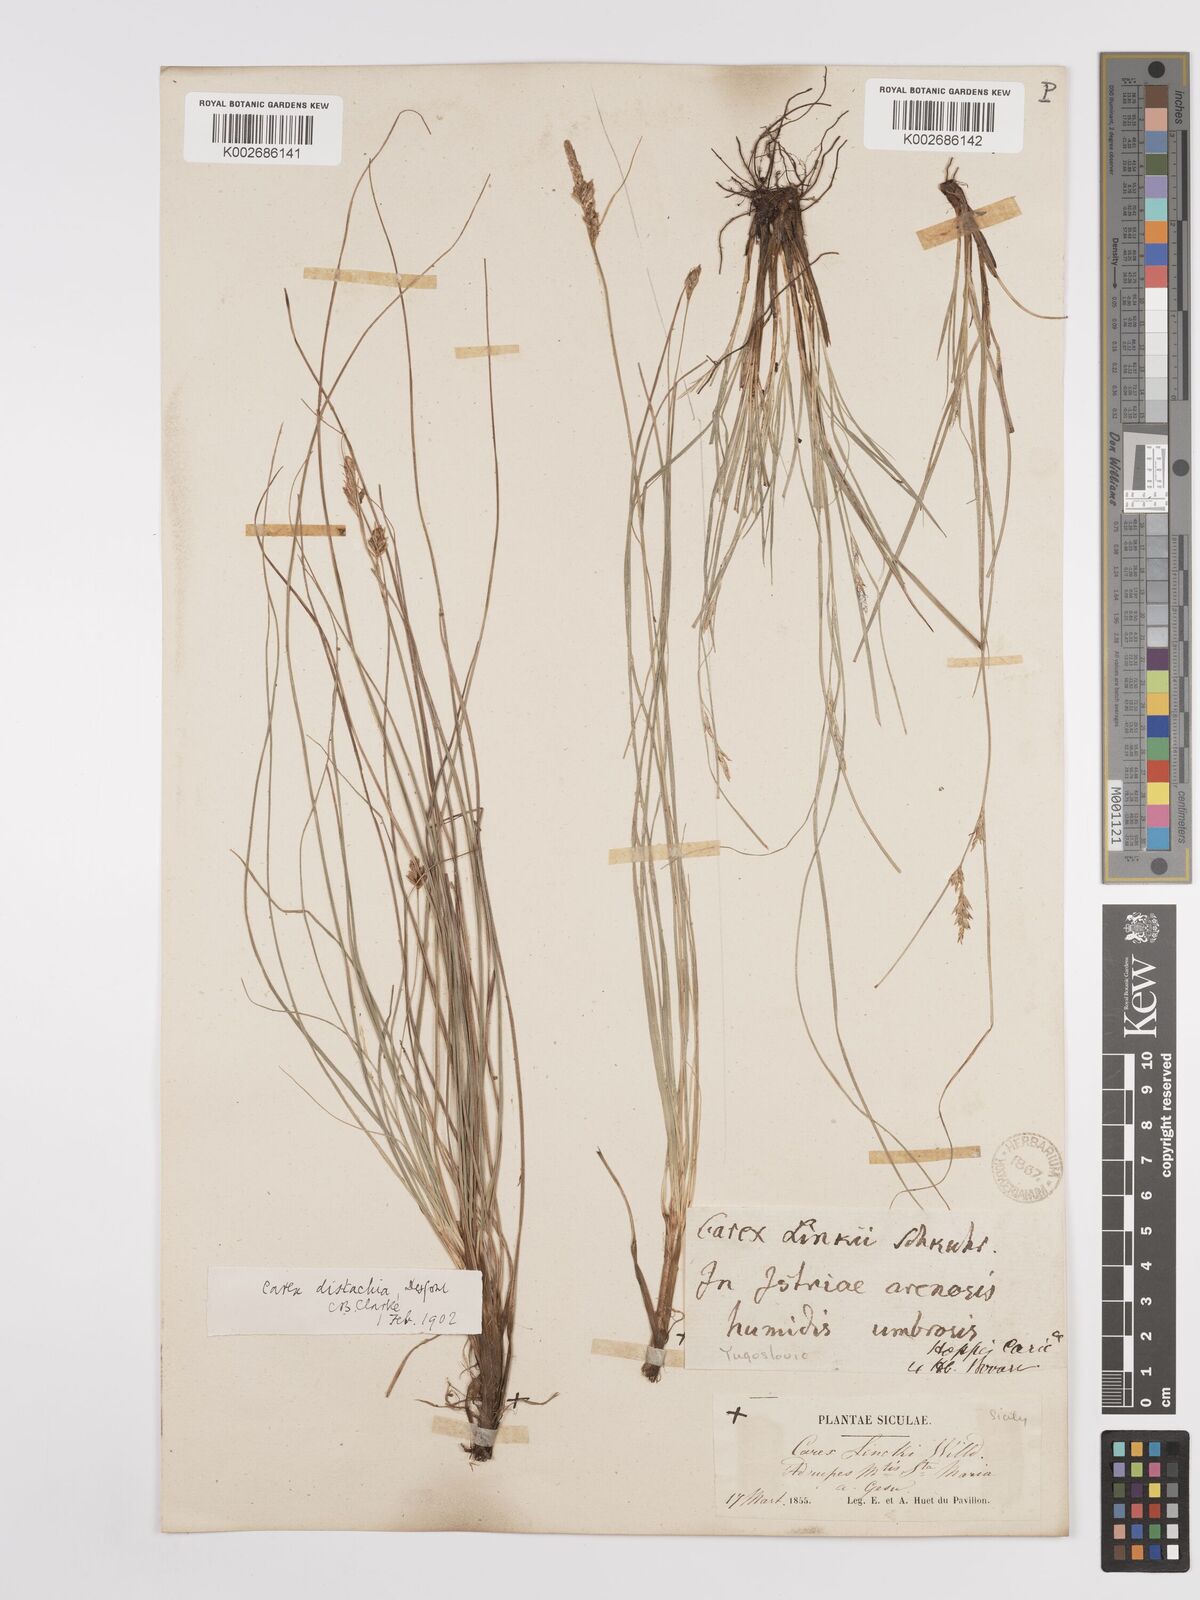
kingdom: Plantae
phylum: Tracheophyta
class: Liliopsida
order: Poales
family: Cyperaceae
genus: Carex
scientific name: Carex distachya
